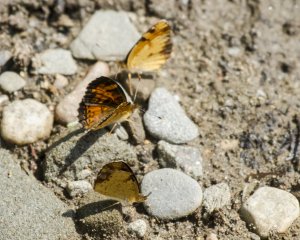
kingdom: Animalia
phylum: Arthropoda
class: Insecta
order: Lepidoptera
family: Nymphalidae
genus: Phyciodes
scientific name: Phyciodes tharos
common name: Northern Crescent
